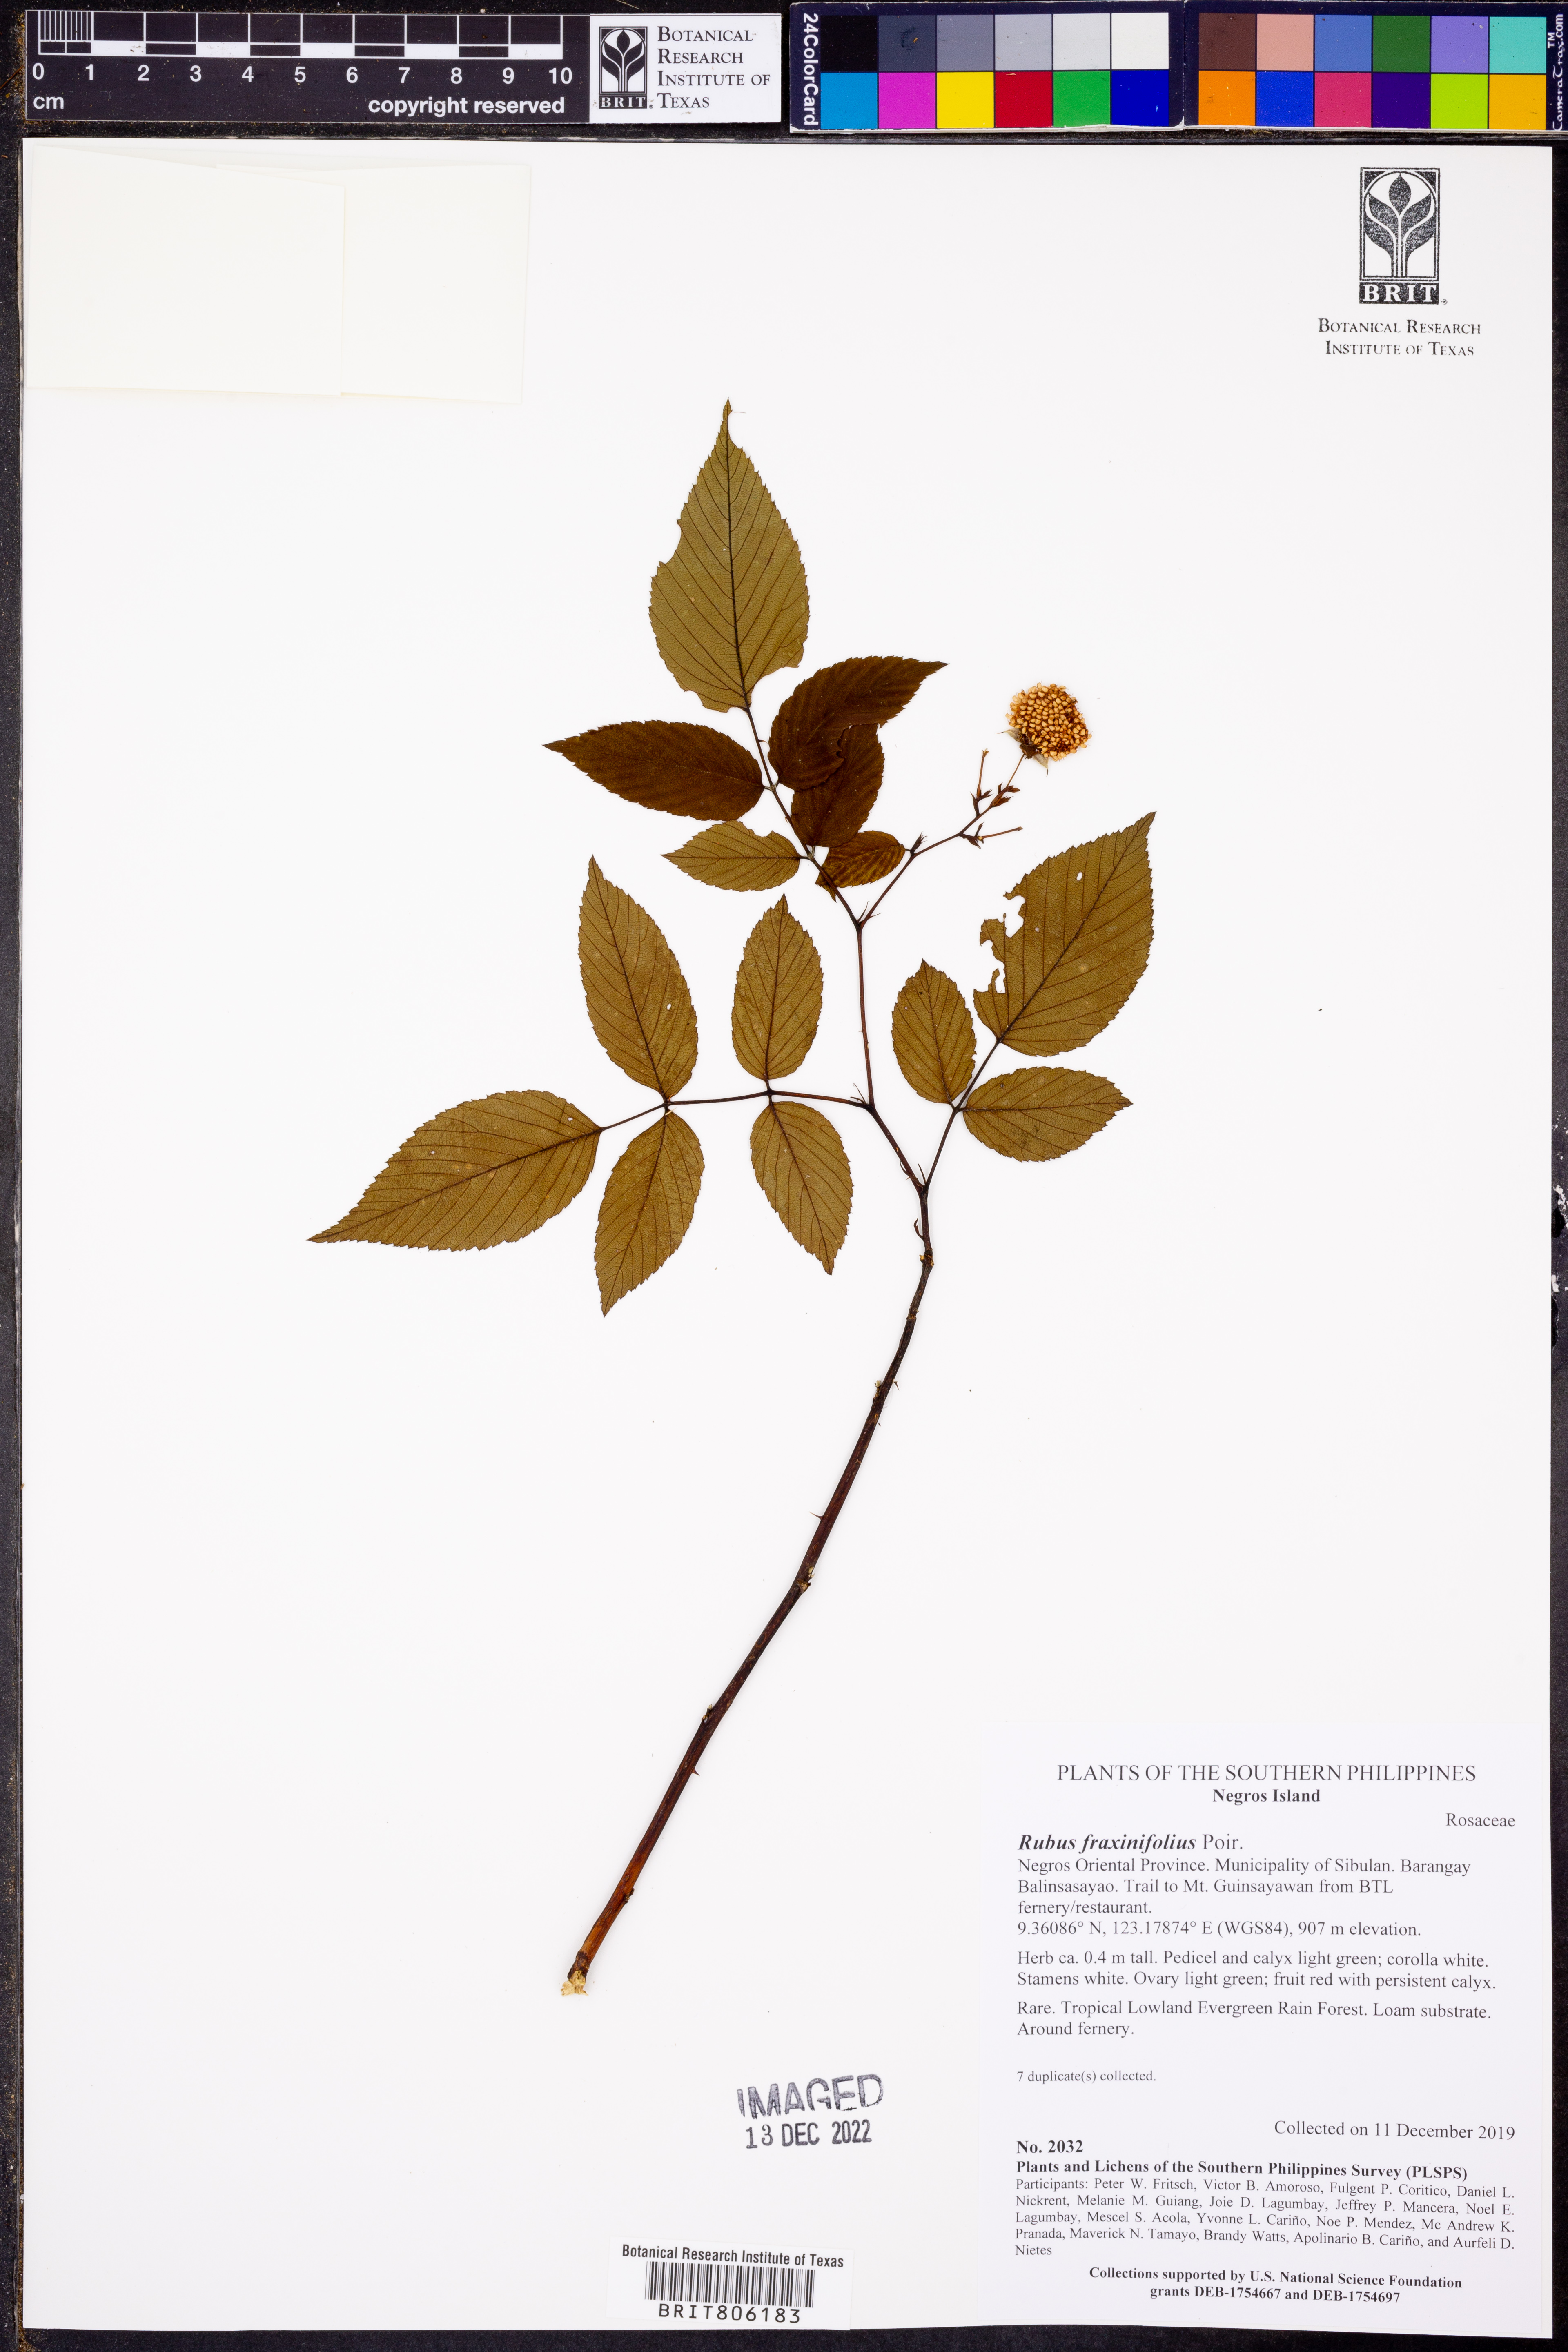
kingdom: Plantae
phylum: Tracheophyta
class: Magnoliopsida
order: Rosales
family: Rosaceae
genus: Rubus
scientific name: Rubus fraxinifolius
